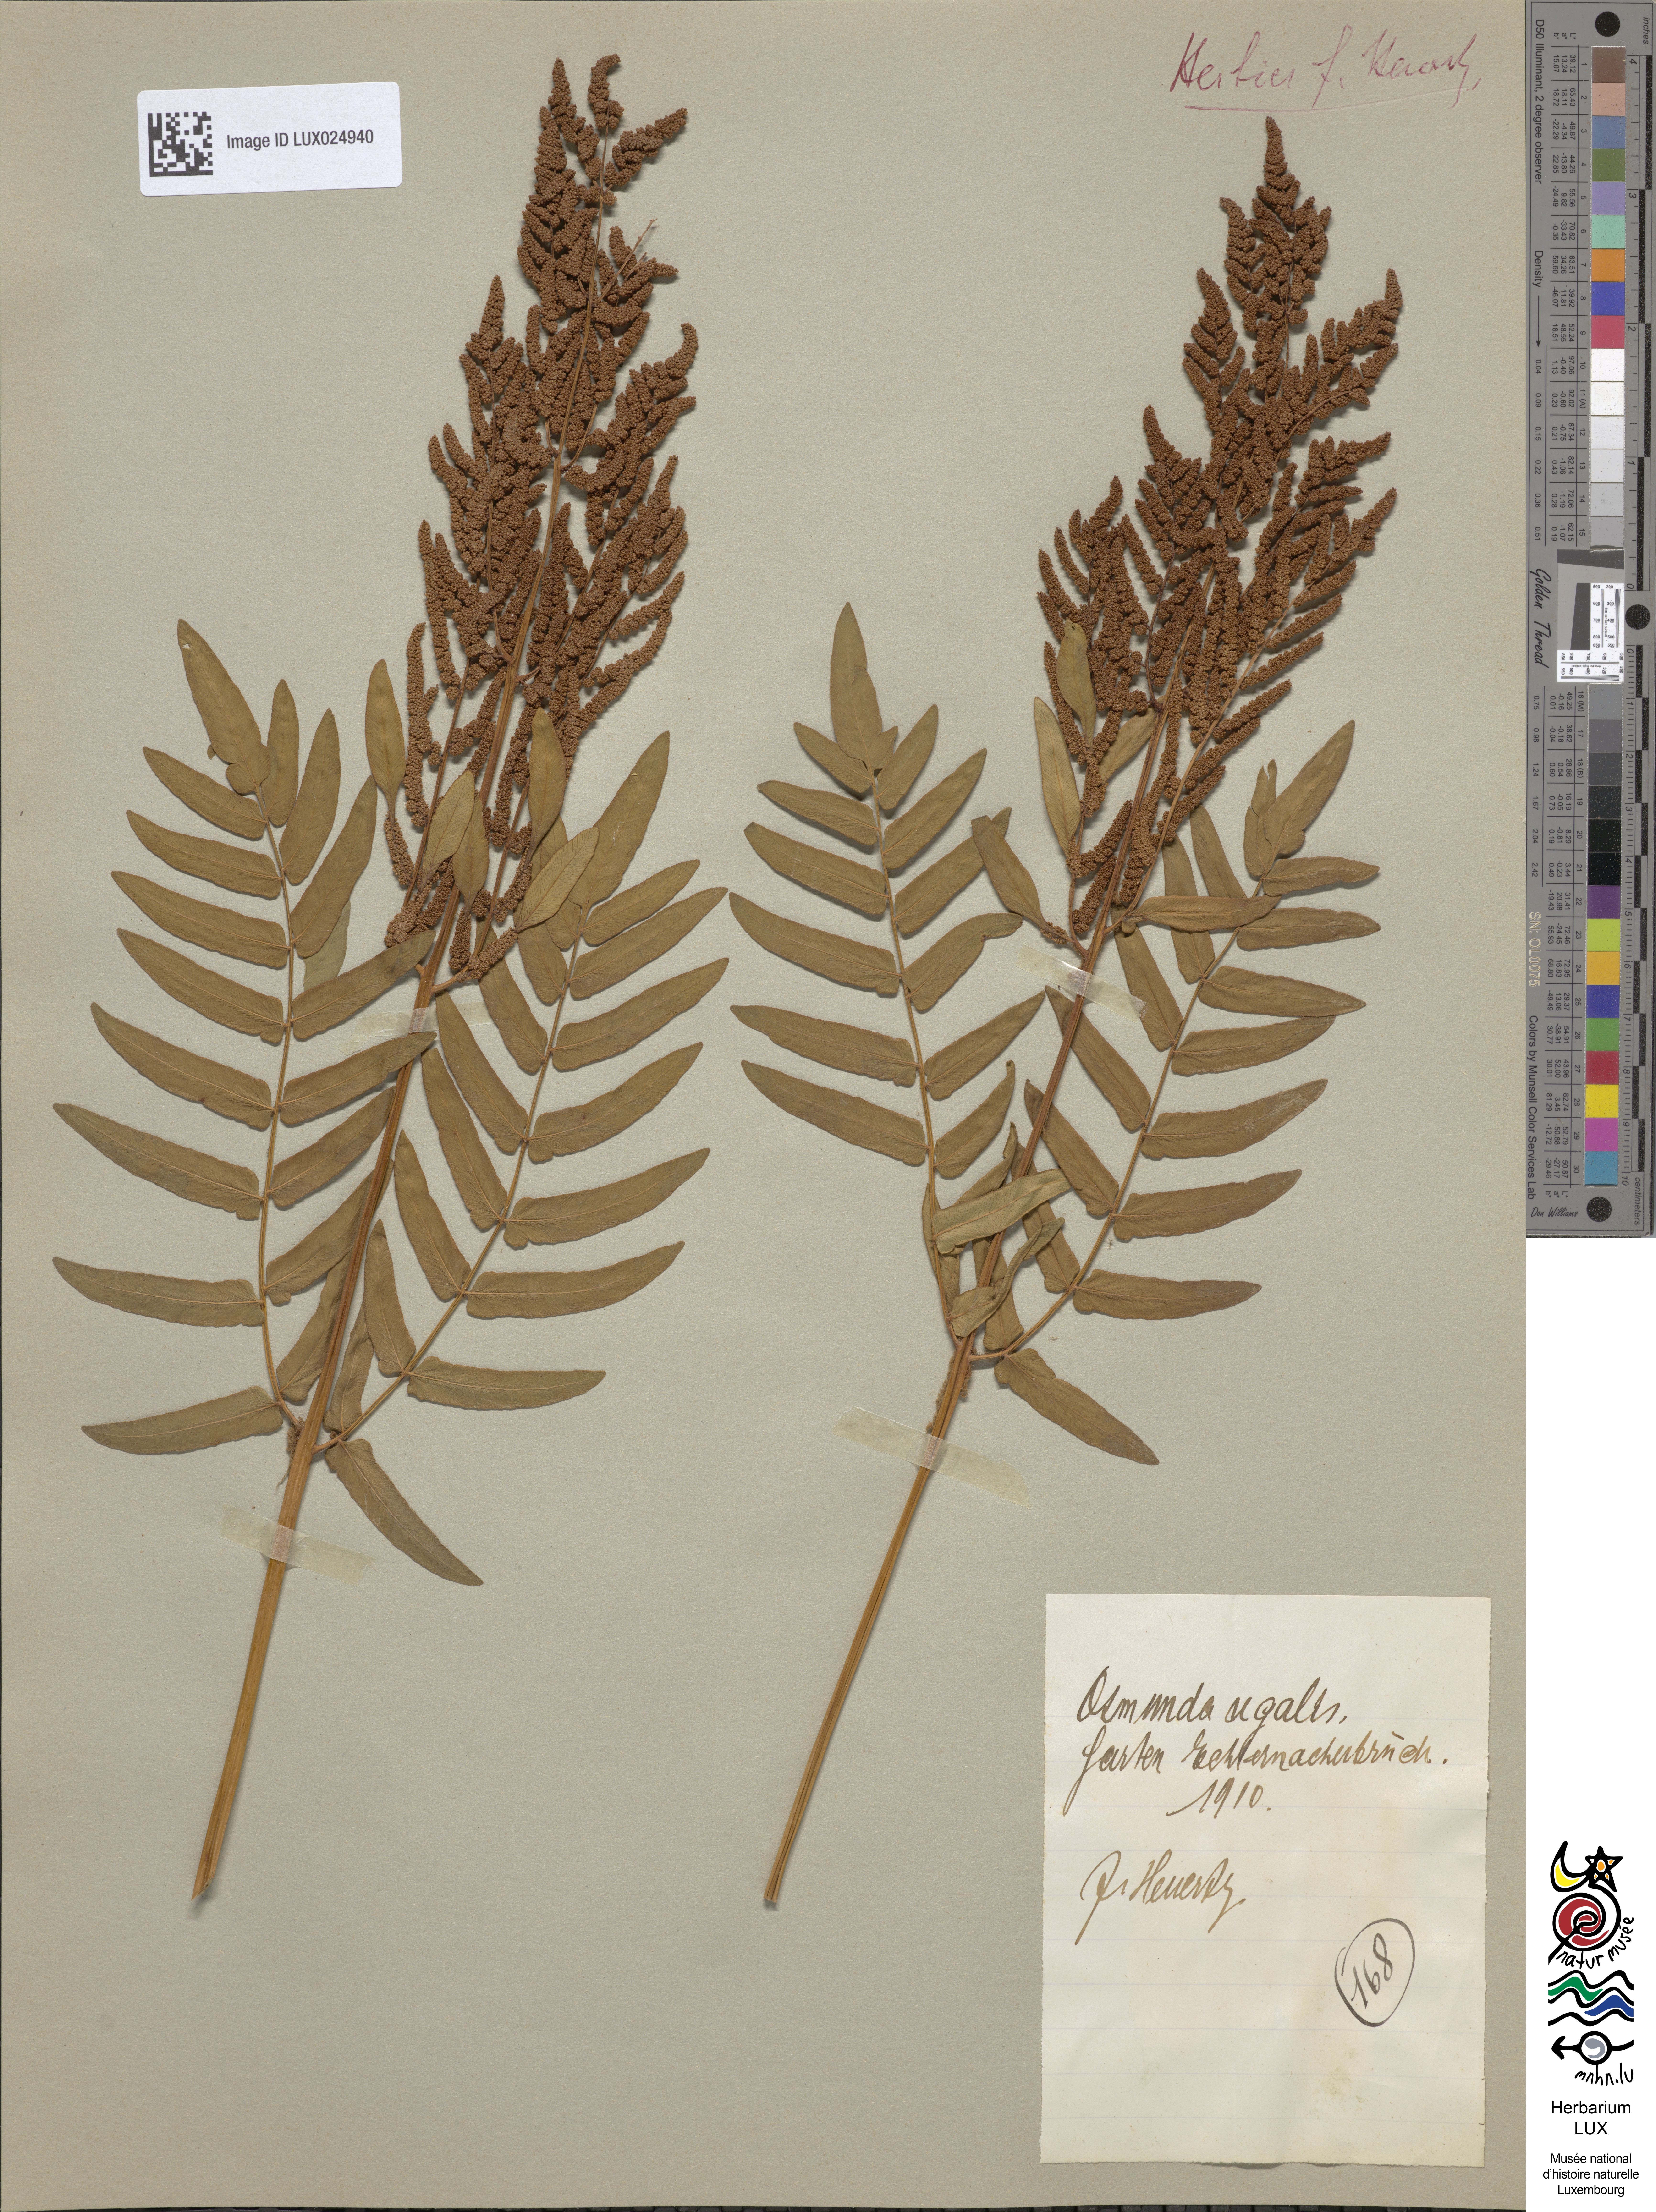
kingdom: Plantae
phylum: Tracheophyta
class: Polypodiopsida
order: Osmundales
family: Osmundaceae
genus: Osmunda
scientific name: Osmunda regalis
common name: Royal fern
